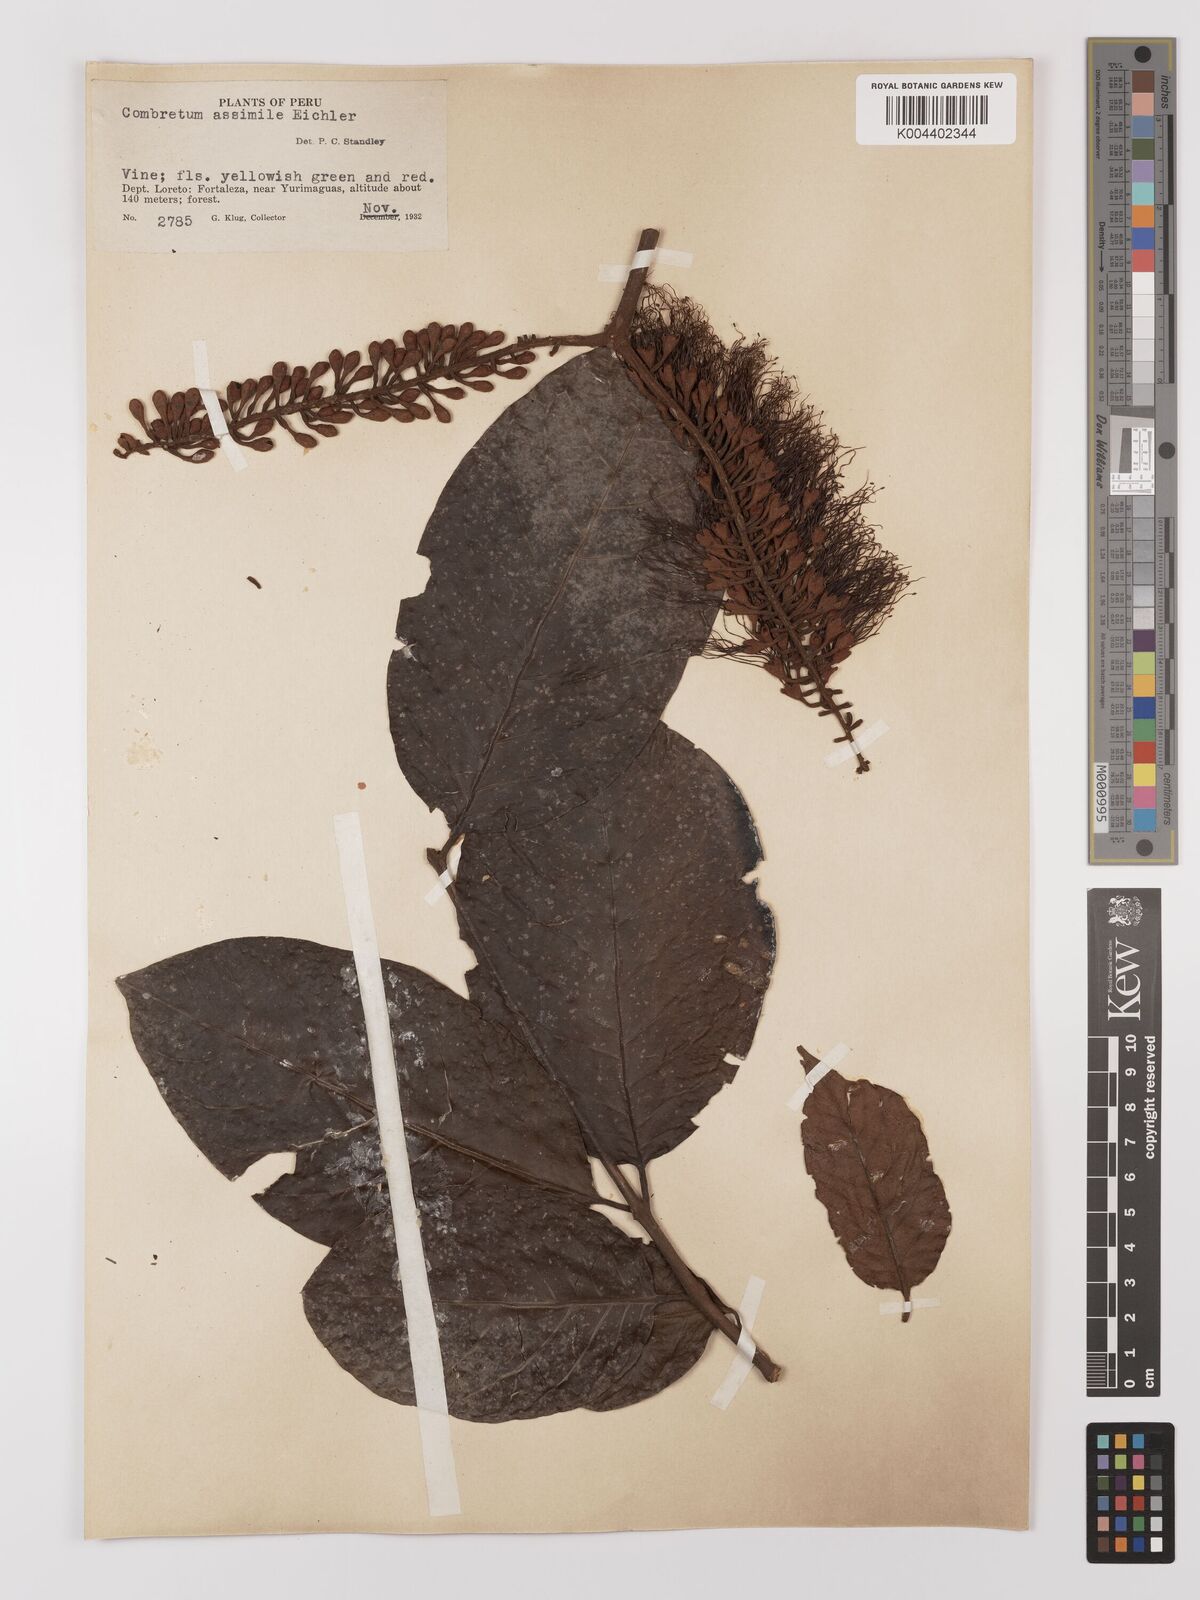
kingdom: Plantae
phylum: Tracheophyta
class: Magnoliopsida
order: Myrtales
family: Combretaceae
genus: Combretum
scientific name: Combretum assimile
